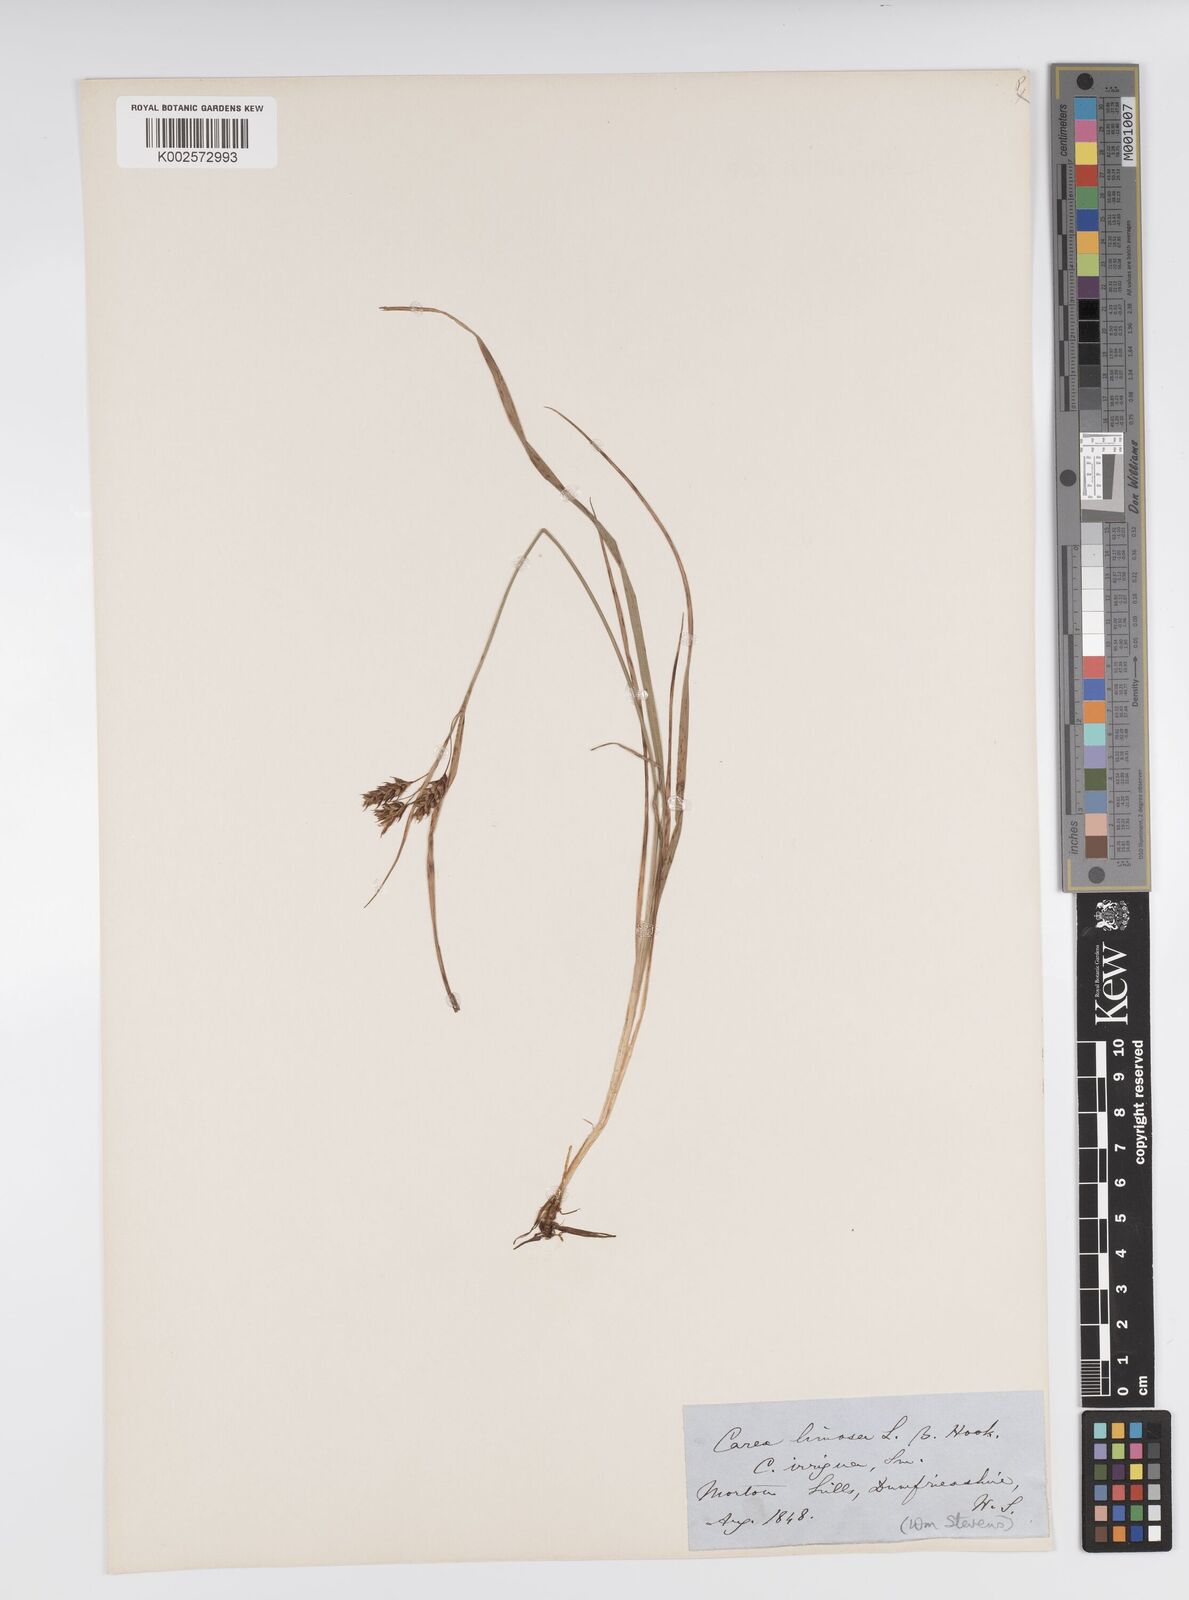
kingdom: Plantae
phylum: Tracheophyta
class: Liliopsida
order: Poales
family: Cyperaceae
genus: Carex
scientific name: Carex limosa
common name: Bog sedge
